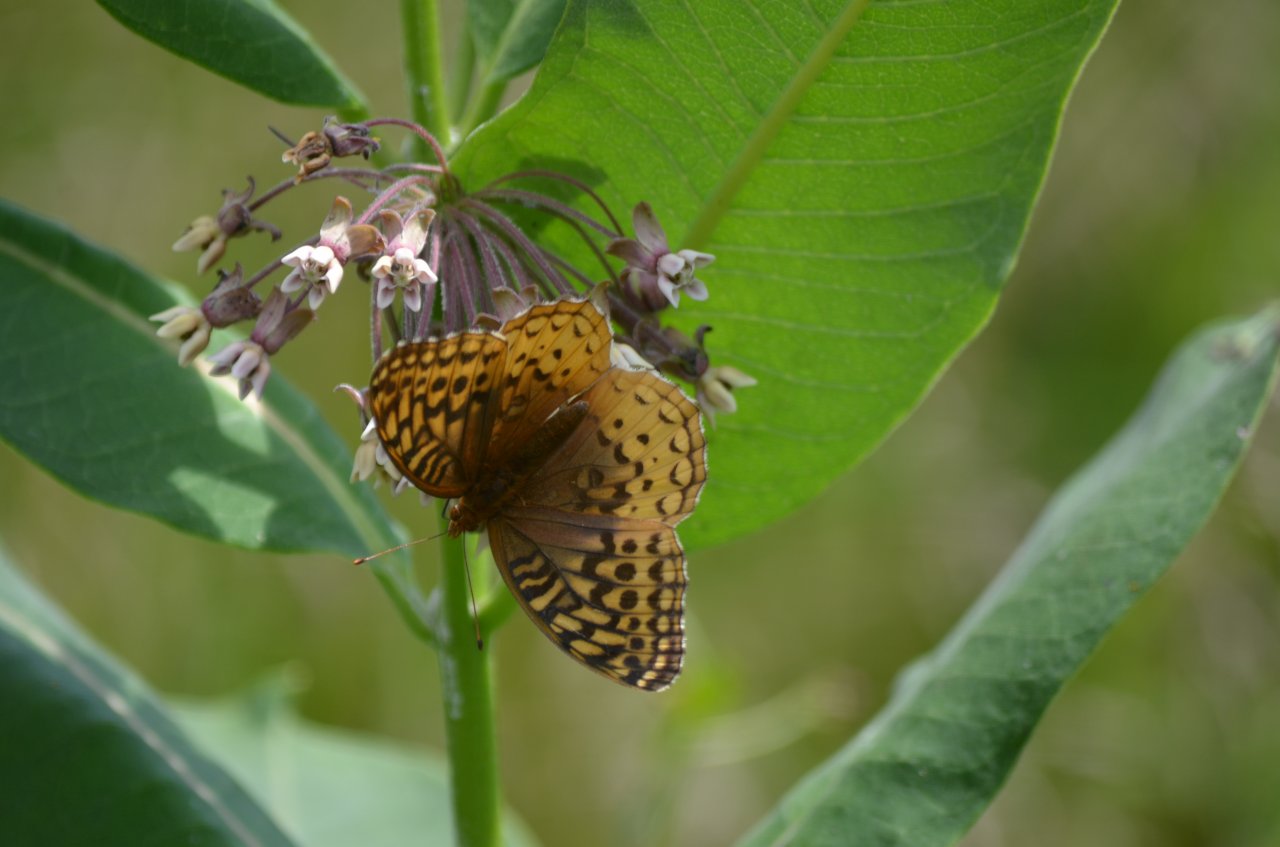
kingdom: Animalia
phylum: Arthropoda
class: Insecta
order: Lepidoptera
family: Nymphalidae
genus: Speyeria
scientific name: Speyeria cybele
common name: Great Spangled Fritillary
